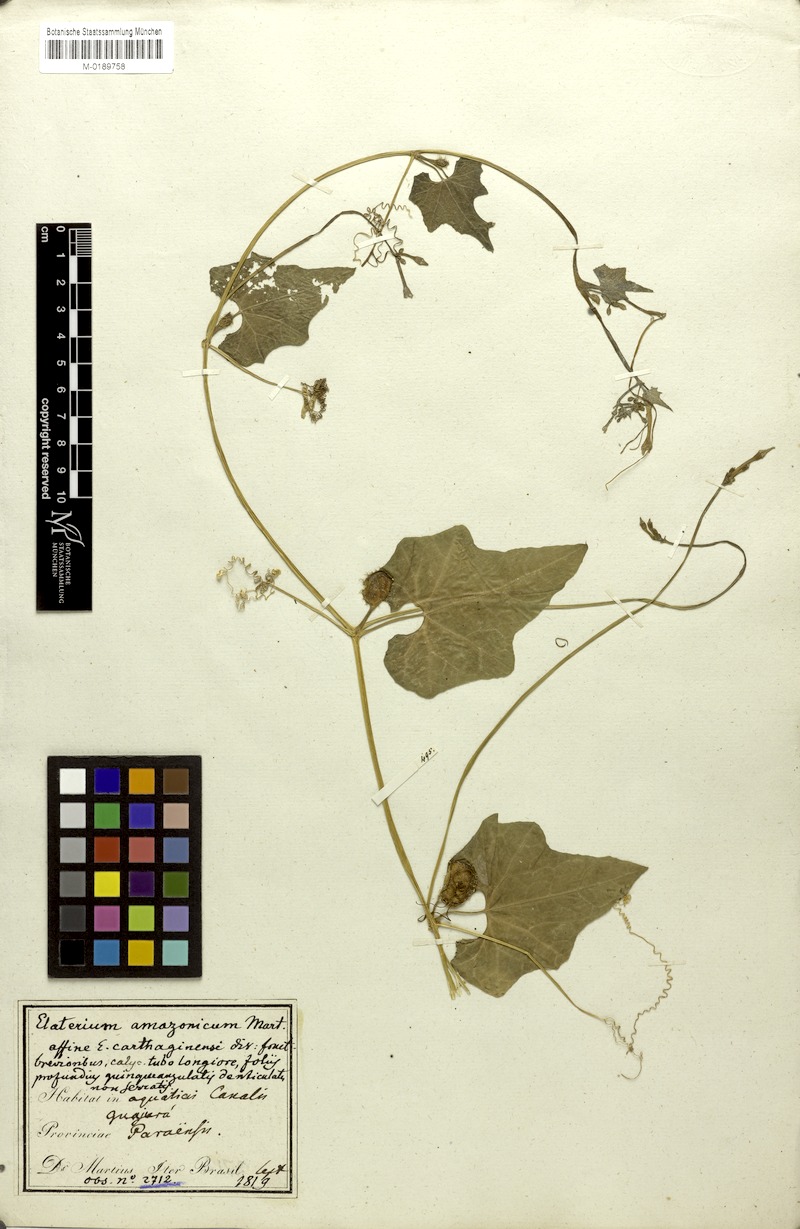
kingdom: Plantae
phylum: Tracheophyta
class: Magnoliopsida
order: Cucurbitales
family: Cucurbitaceae
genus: Cyclanthera
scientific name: Cyclanthera carthagenensis
